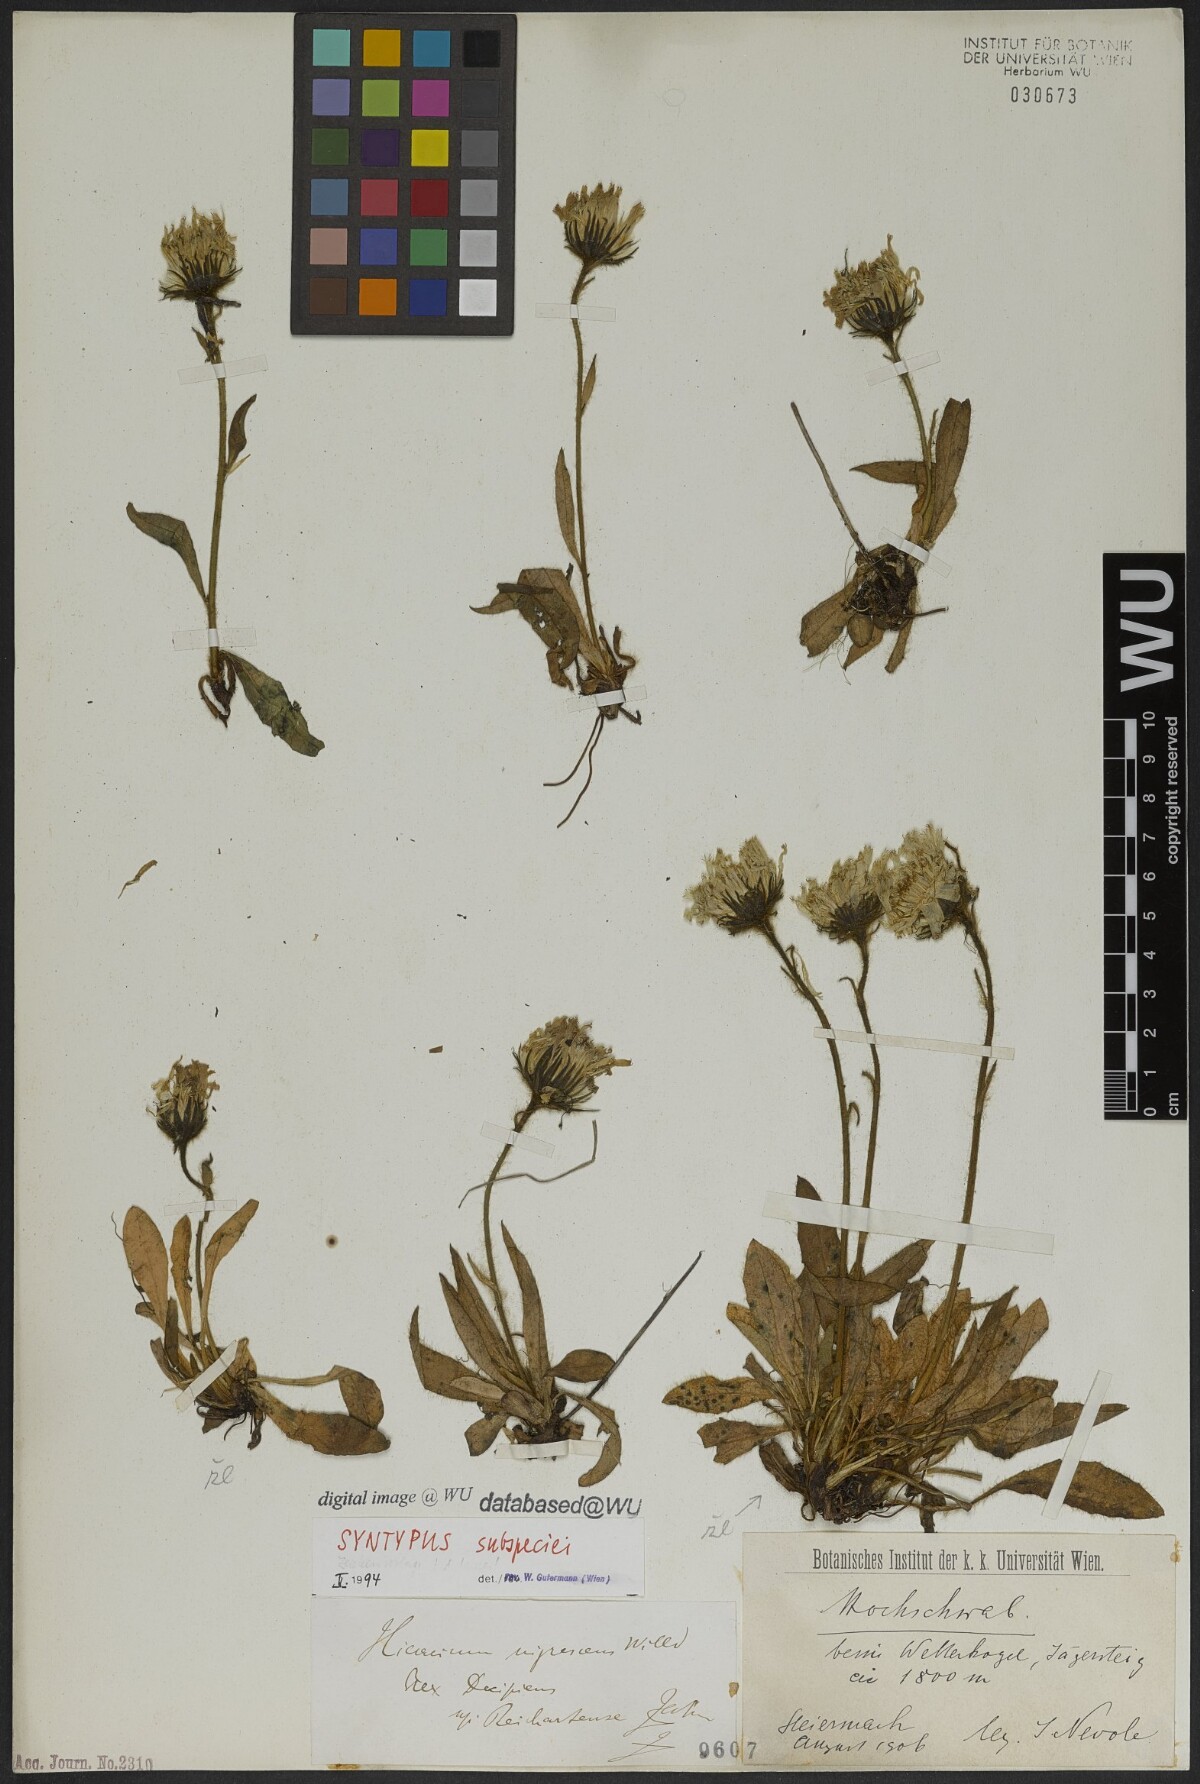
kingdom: Plantae
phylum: Tracheophyta
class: Magnoliopsida
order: Asterales
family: Asteraceae
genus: Hieracium
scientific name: Hieracium nigrescens
